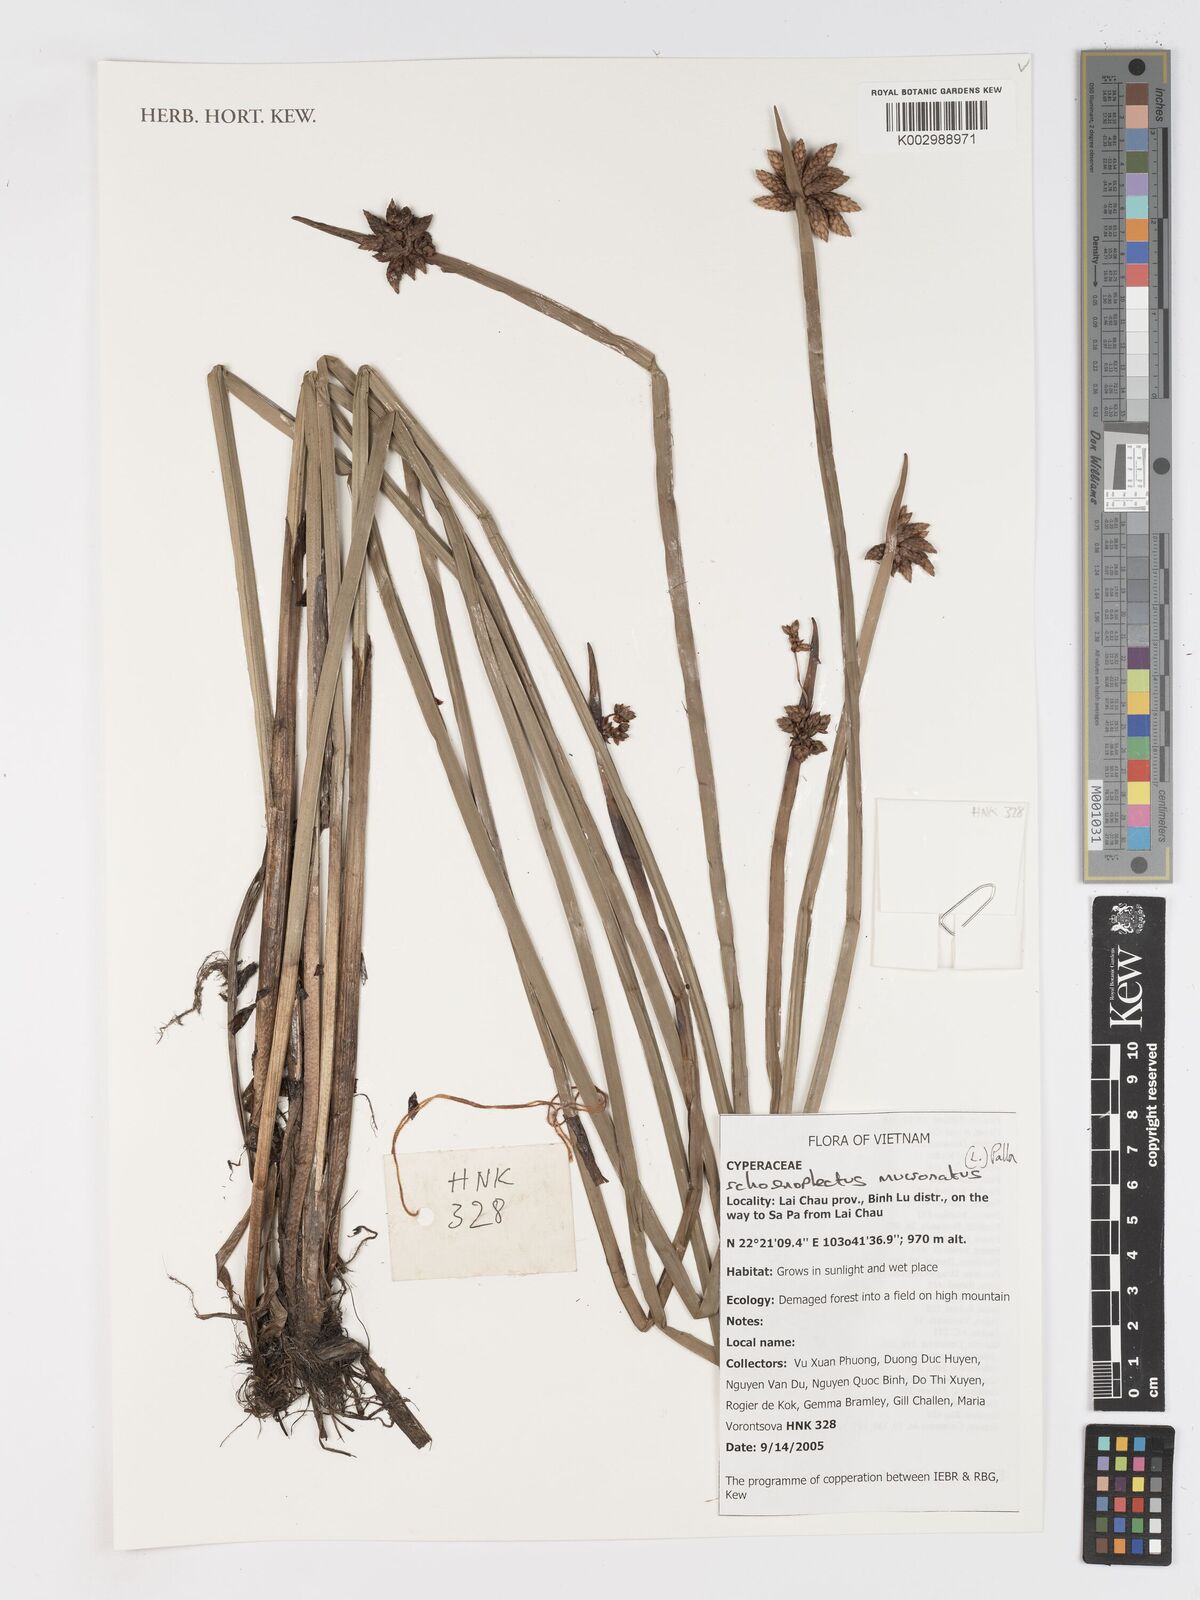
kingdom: Plantae
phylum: Tracheophyta
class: Liliopsida
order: Poales
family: Cyperaceae
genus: Schoenoplectiella
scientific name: Schoenoplectiella mucronata
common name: Bog bulrush
